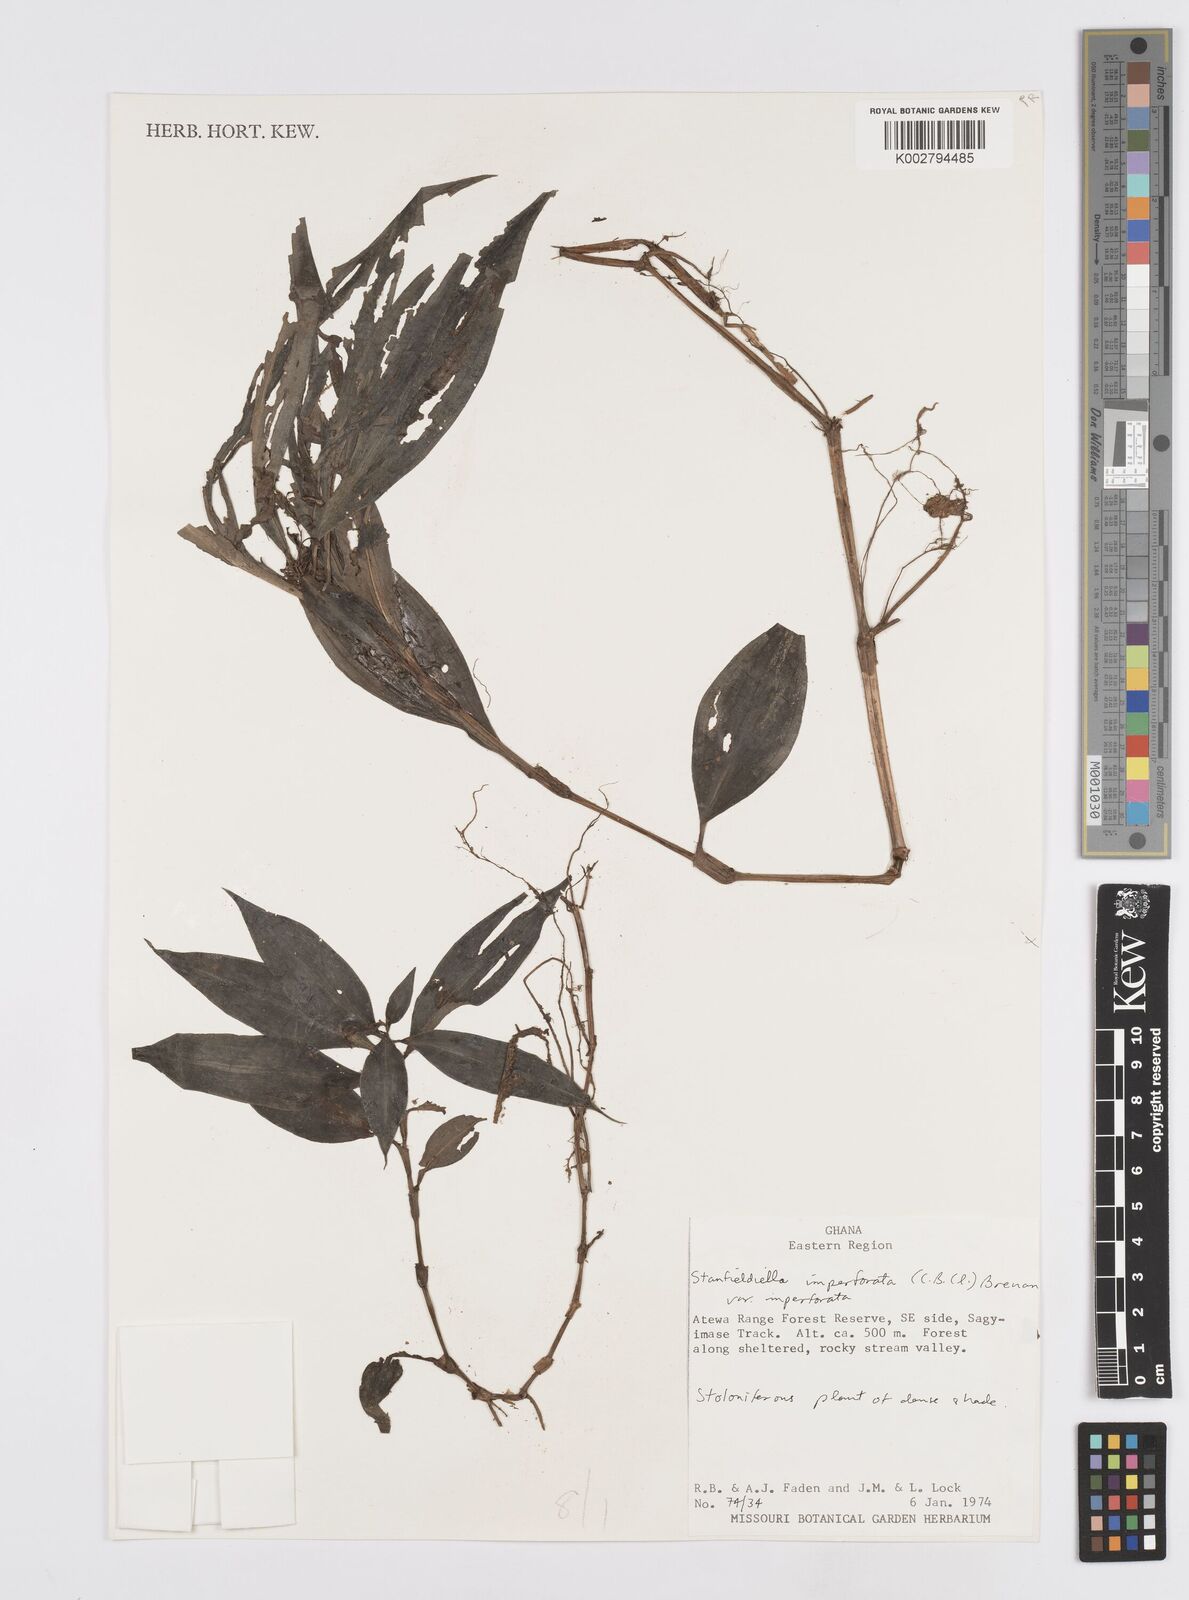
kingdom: Plantae
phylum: Tracheophyta
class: Liliopsida
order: Commelinales
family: Commelinaceae
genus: Stanfieldiella
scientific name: Stanfieldiella imperforata
